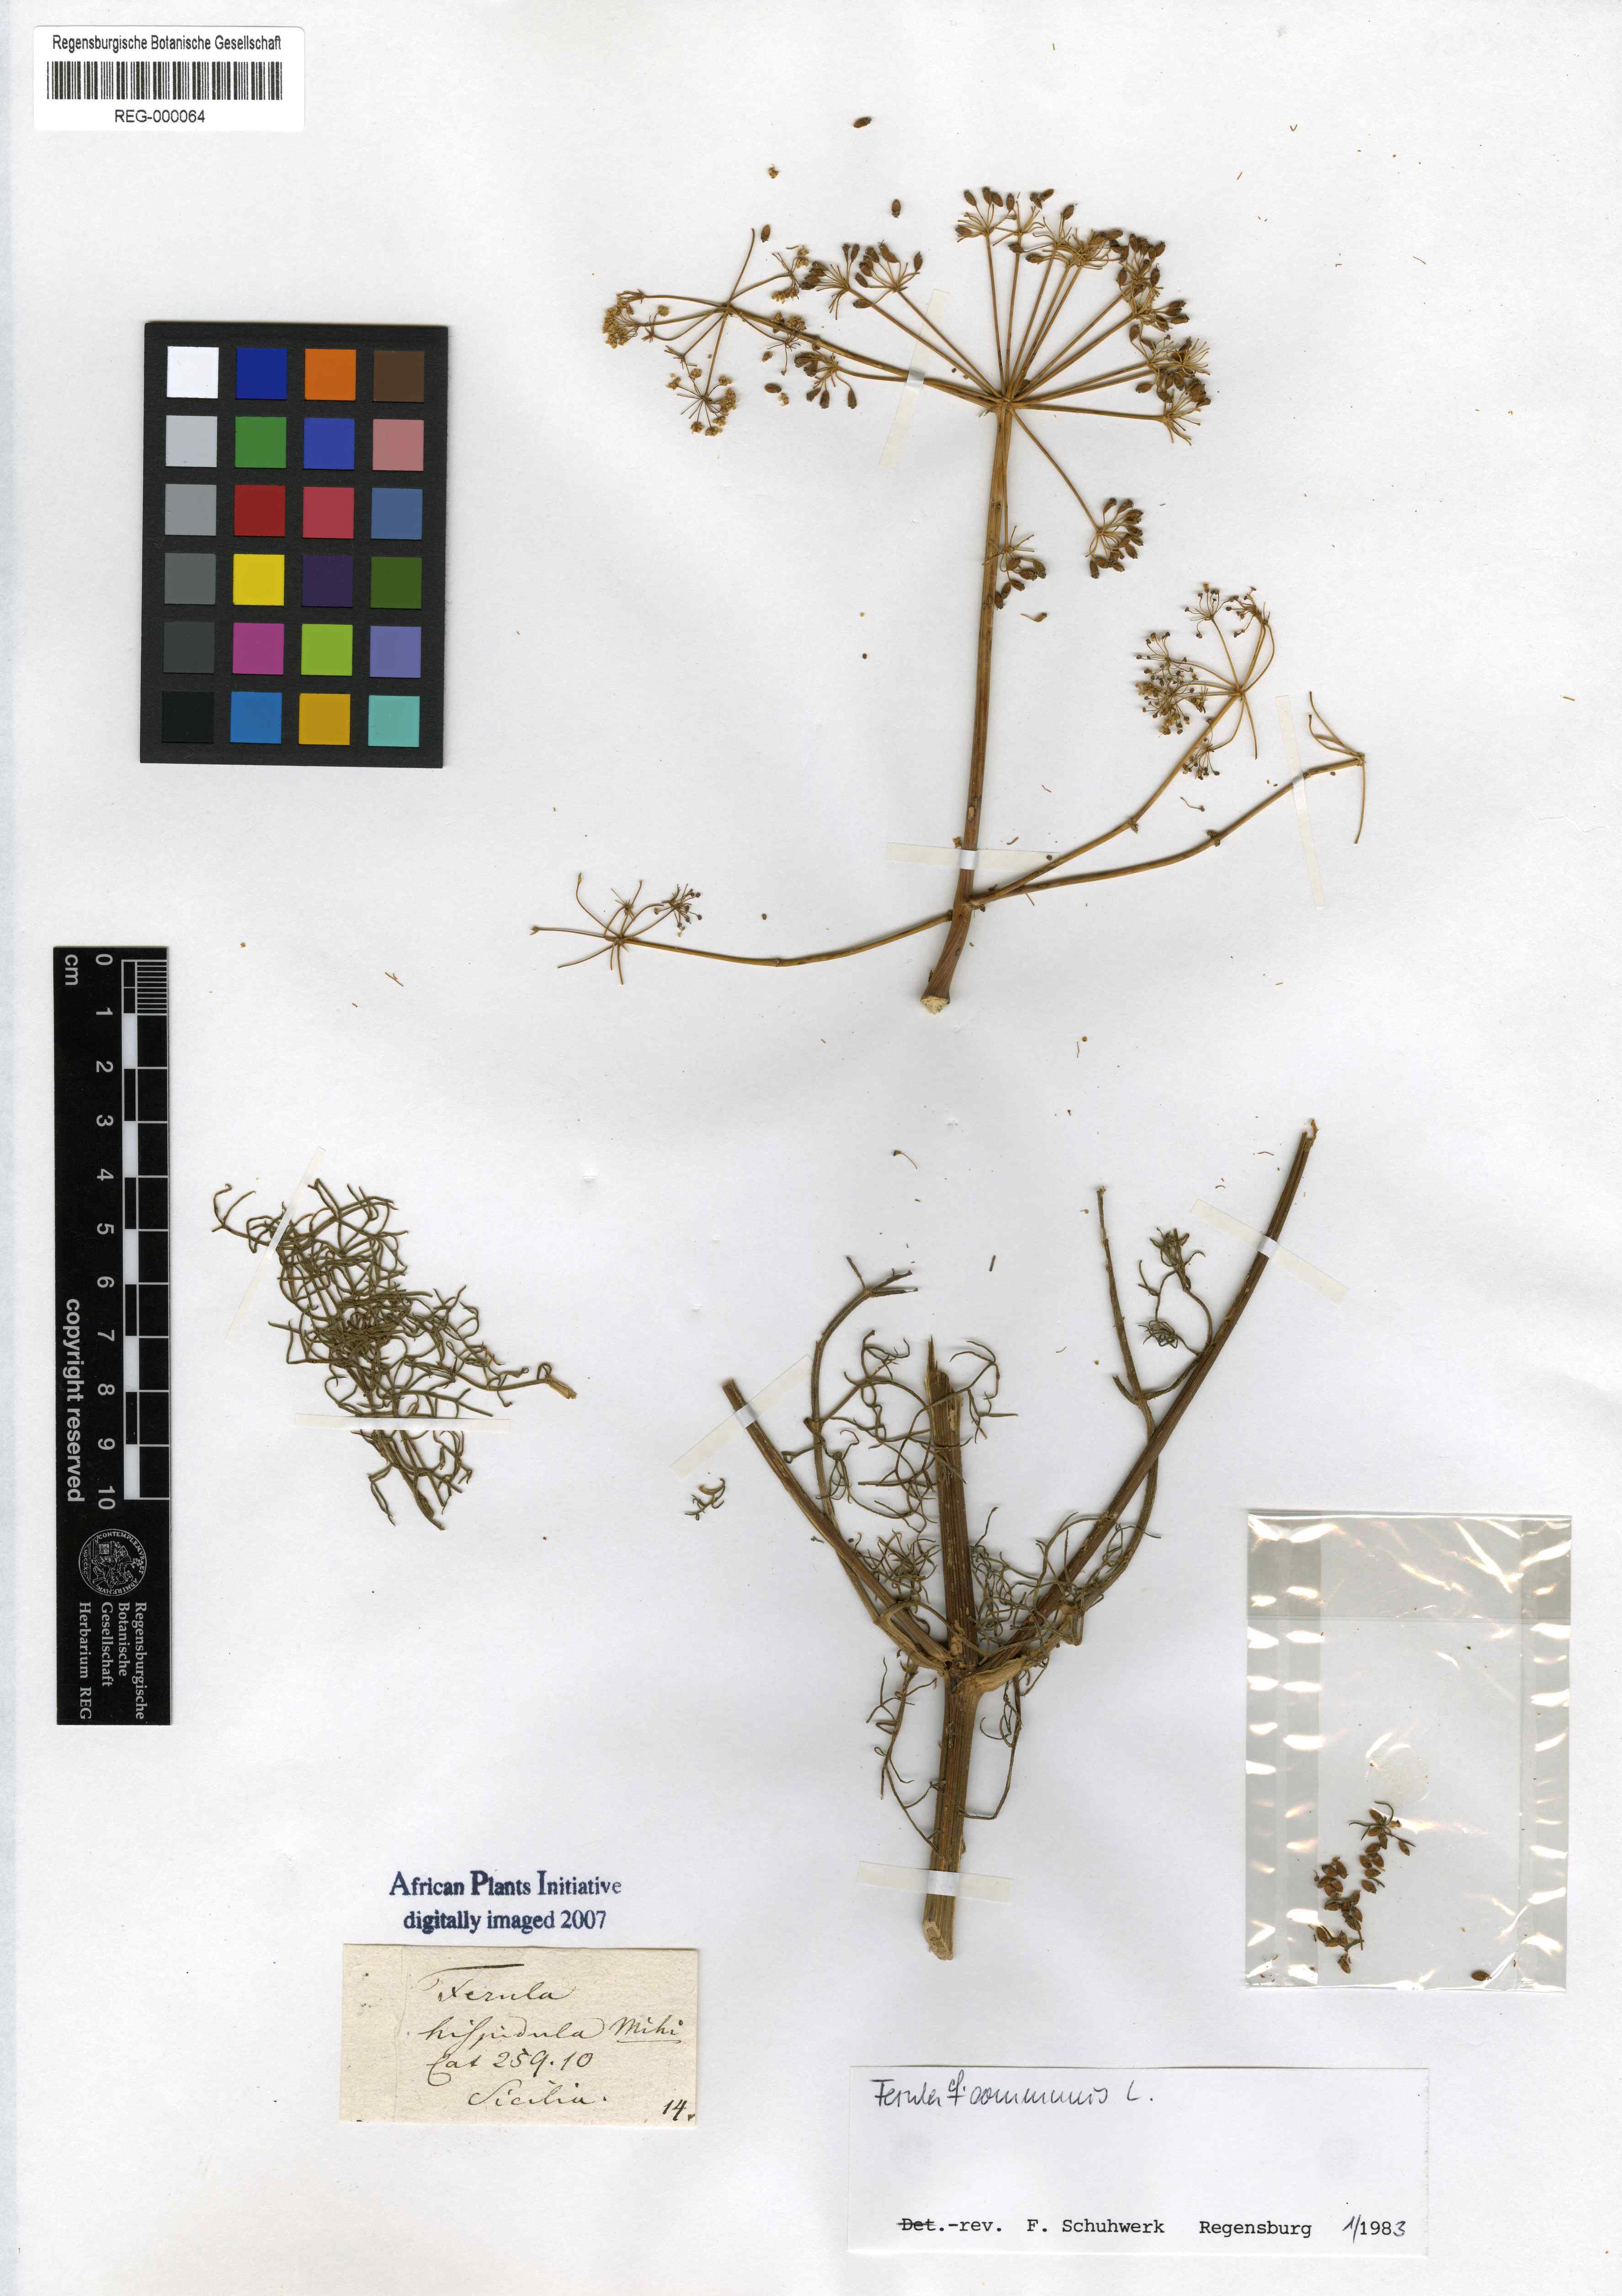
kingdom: Plantae
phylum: Tracheophyta
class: Magnoliopsida
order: Apiales
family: Apiaceae
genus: Opopanax
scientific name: Opopanax hispidus
